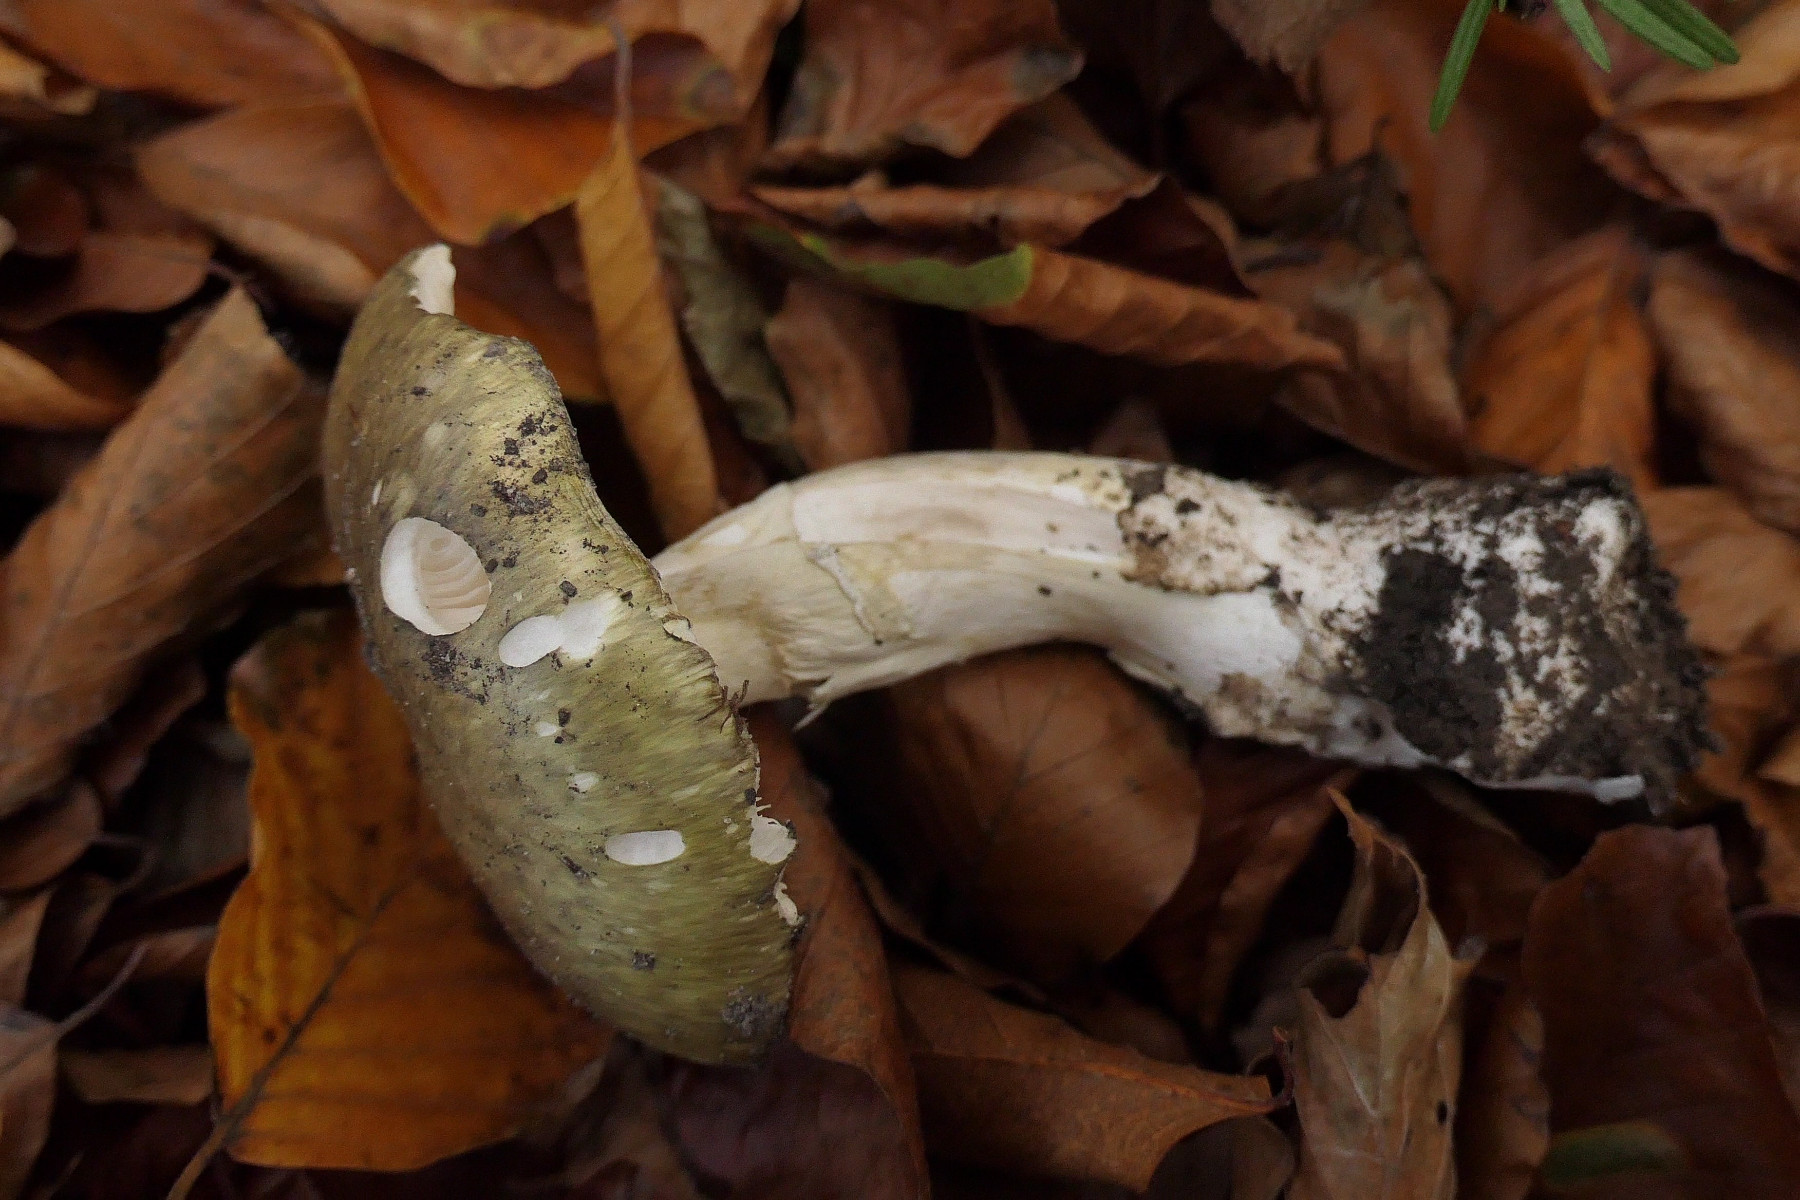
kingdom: Fungi
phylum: Basidiomycota
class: Agaricomycetes
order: Agaricales
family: Amanitaceae
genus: Amanita
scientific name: Amanita phalloides
